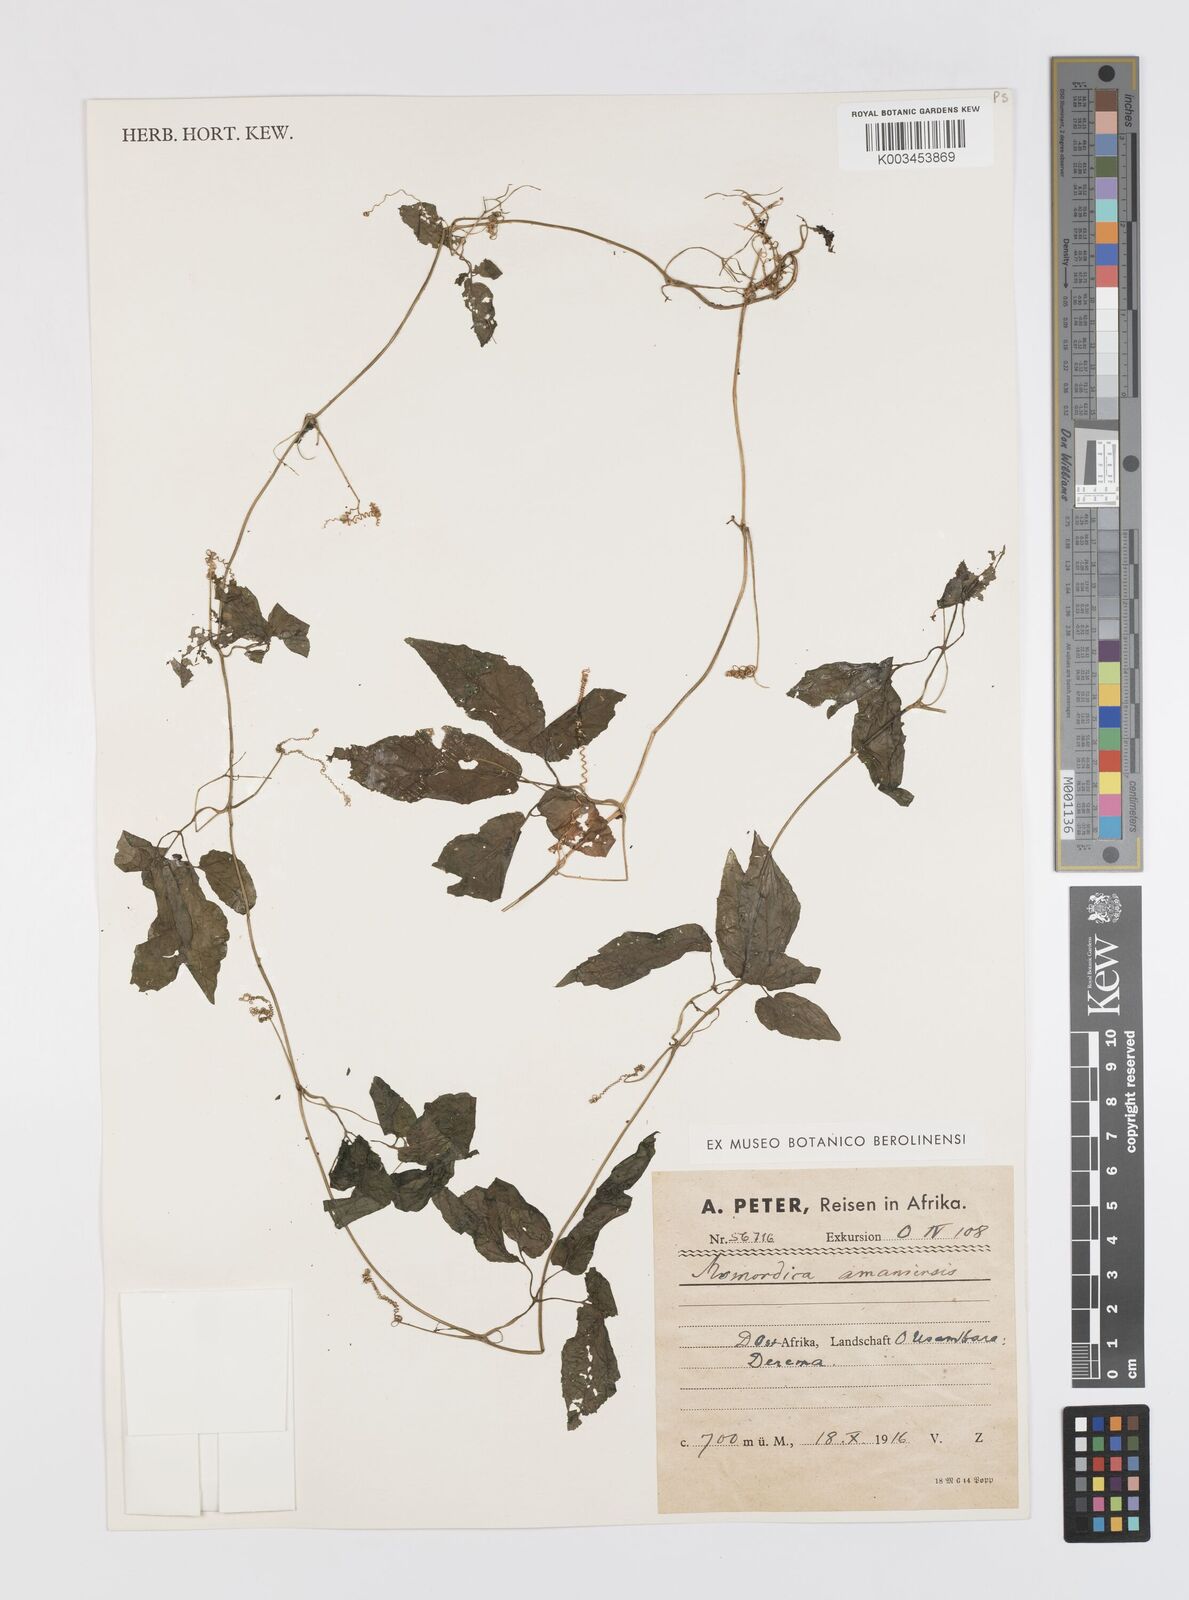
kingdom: Plantae
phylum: Tracheophyta
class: Magnoliopsida
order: Cucurbitales
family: Cucurbitaceae
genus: Momordica
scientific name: Momordica anigosantha
